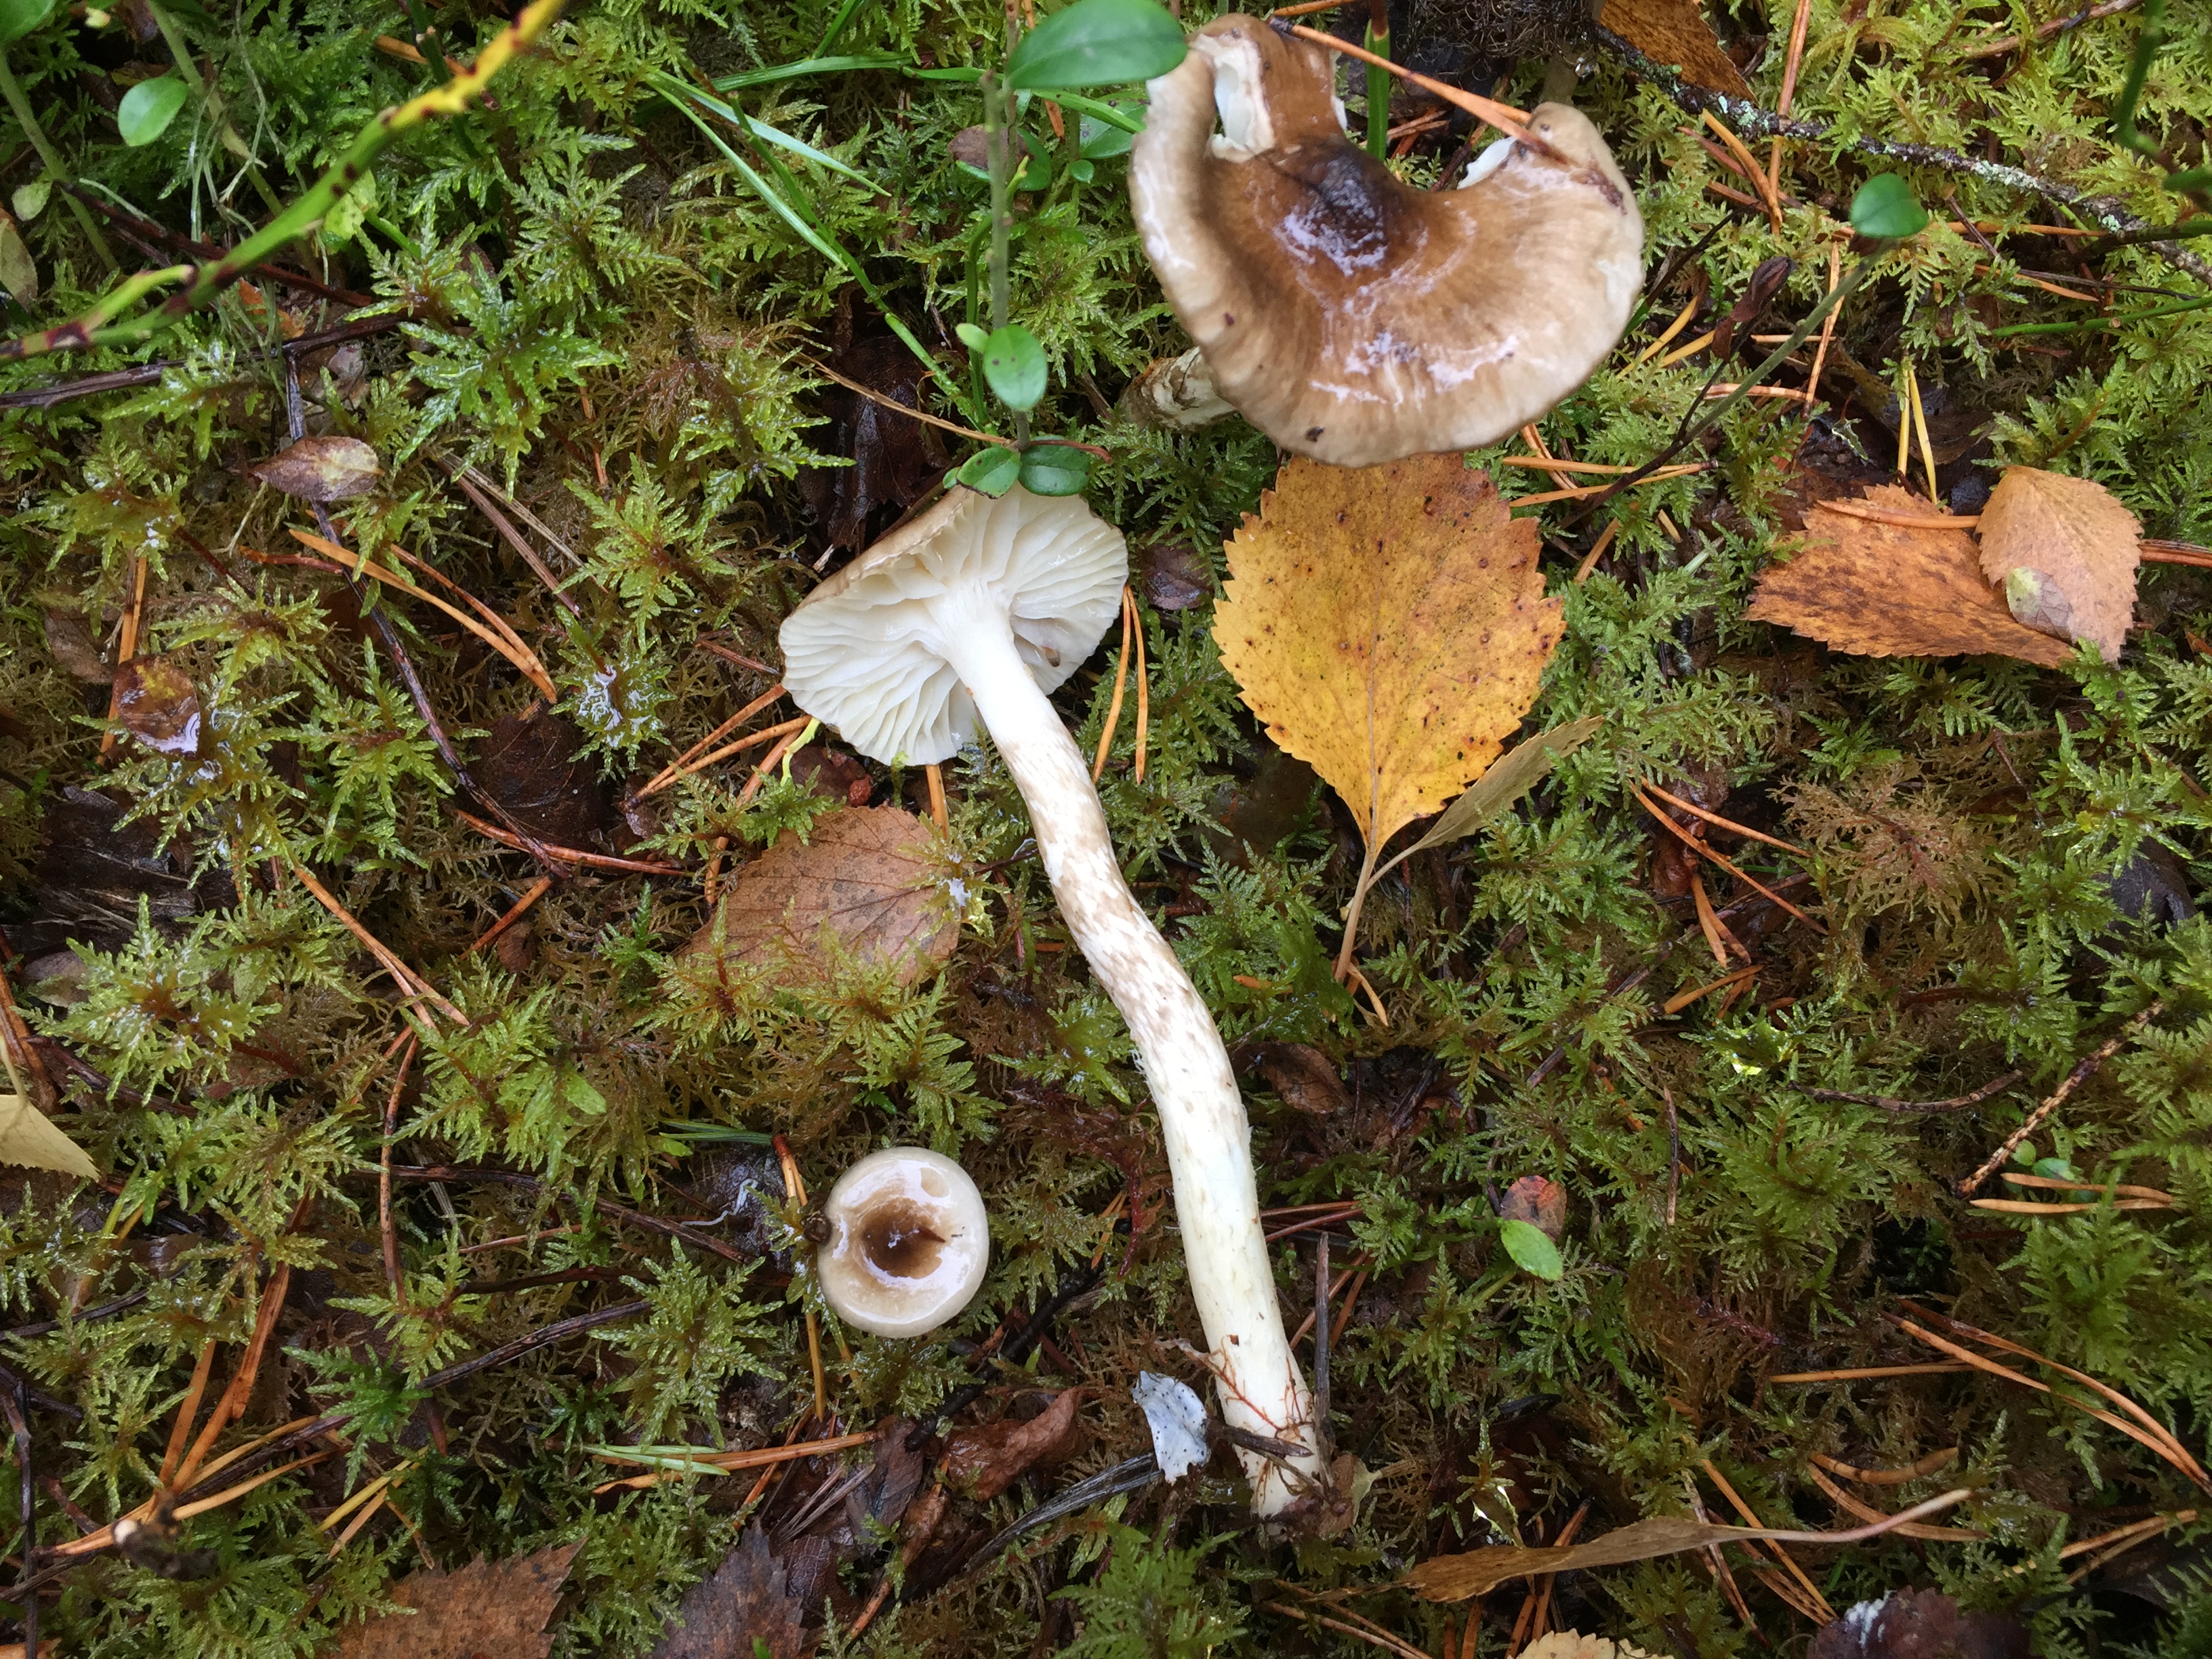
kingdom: Fungi
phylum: Basidiomycota
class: Agaricomycetes
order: Agaricales
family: Hygrophoraceae
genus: Hygrophorus
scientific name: Hygrophorus olivaceoalbus
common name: Olive wax cap
